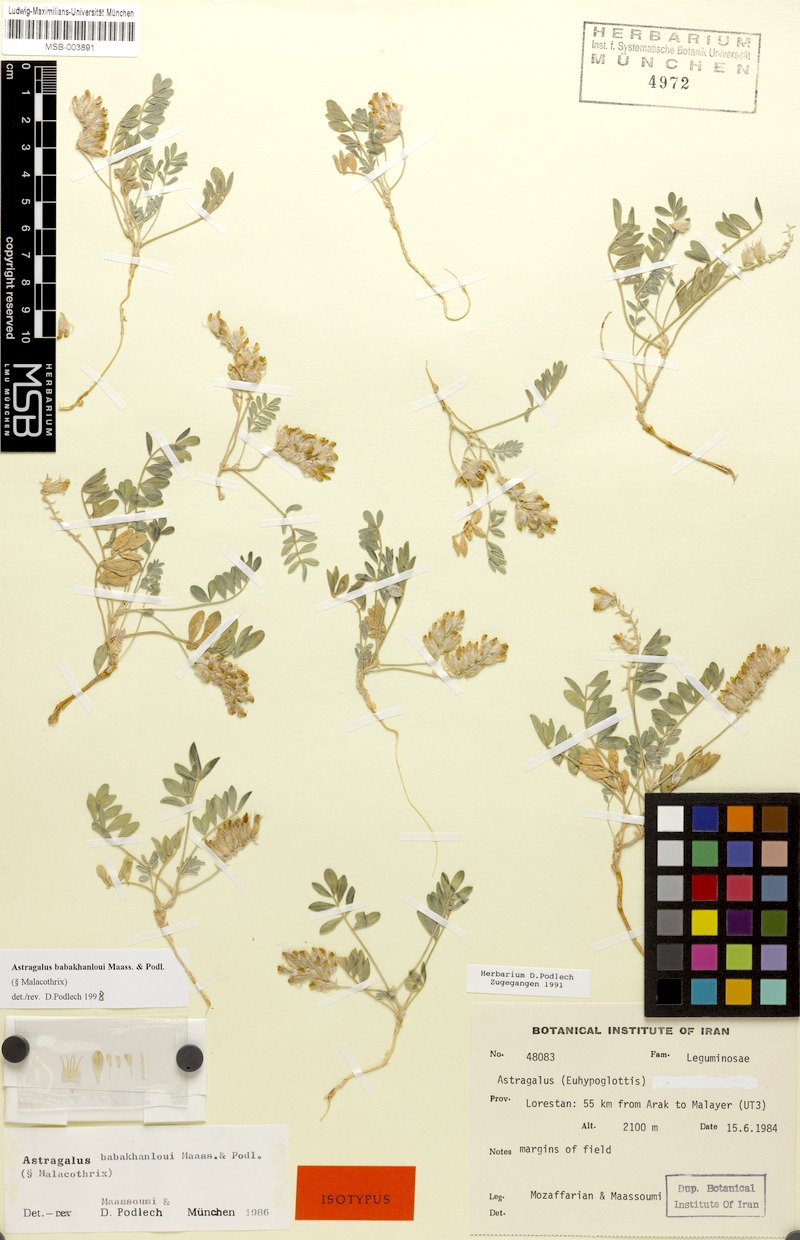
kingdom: Plantae
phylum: Tracheophyta
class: Magnoliopsida
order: Fabales
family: Fabaceae
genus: Astragalus
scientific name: Astragalus babakhanloui
